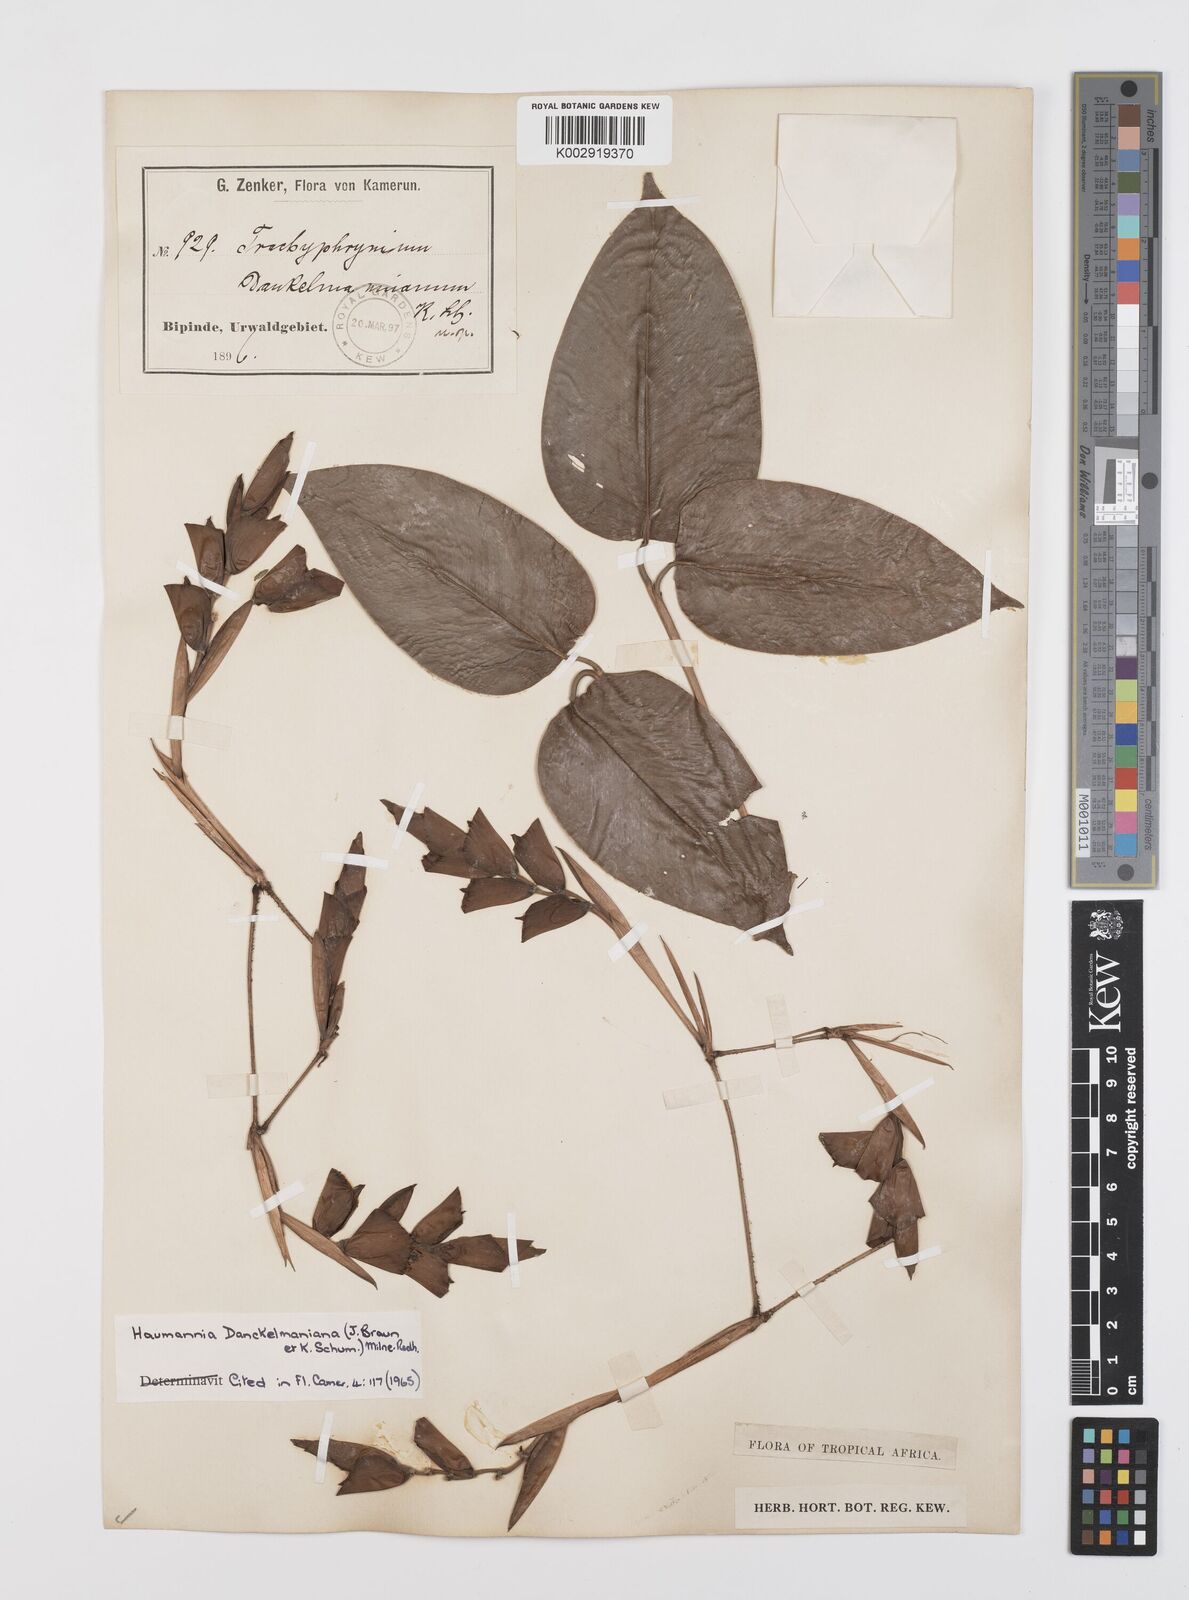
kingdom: Plantae
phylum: Tracheophyta
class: Liliopsida
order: Zingiberales
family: Marantaceae
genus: Haumania
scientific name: Haumania danckelmaniana
